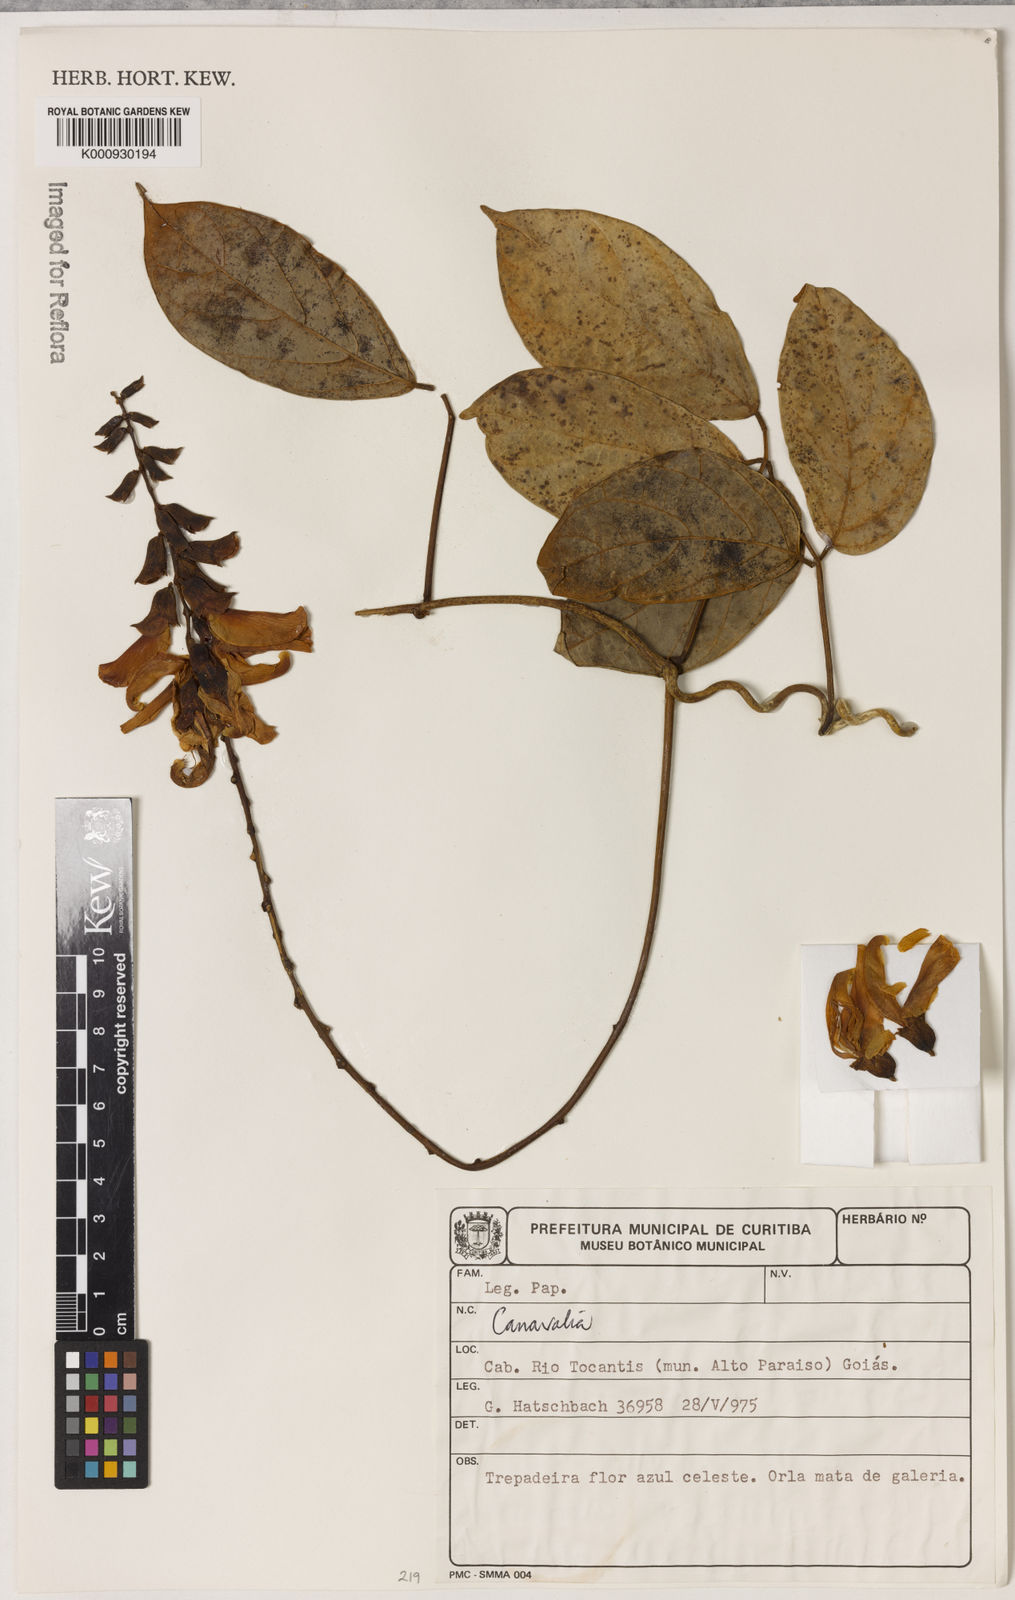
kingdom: Plantae
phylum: Tracheophyta
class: Magnoliopsida
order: Fabales
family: Fabaceae
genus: Canavalia
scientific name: Canavalia
